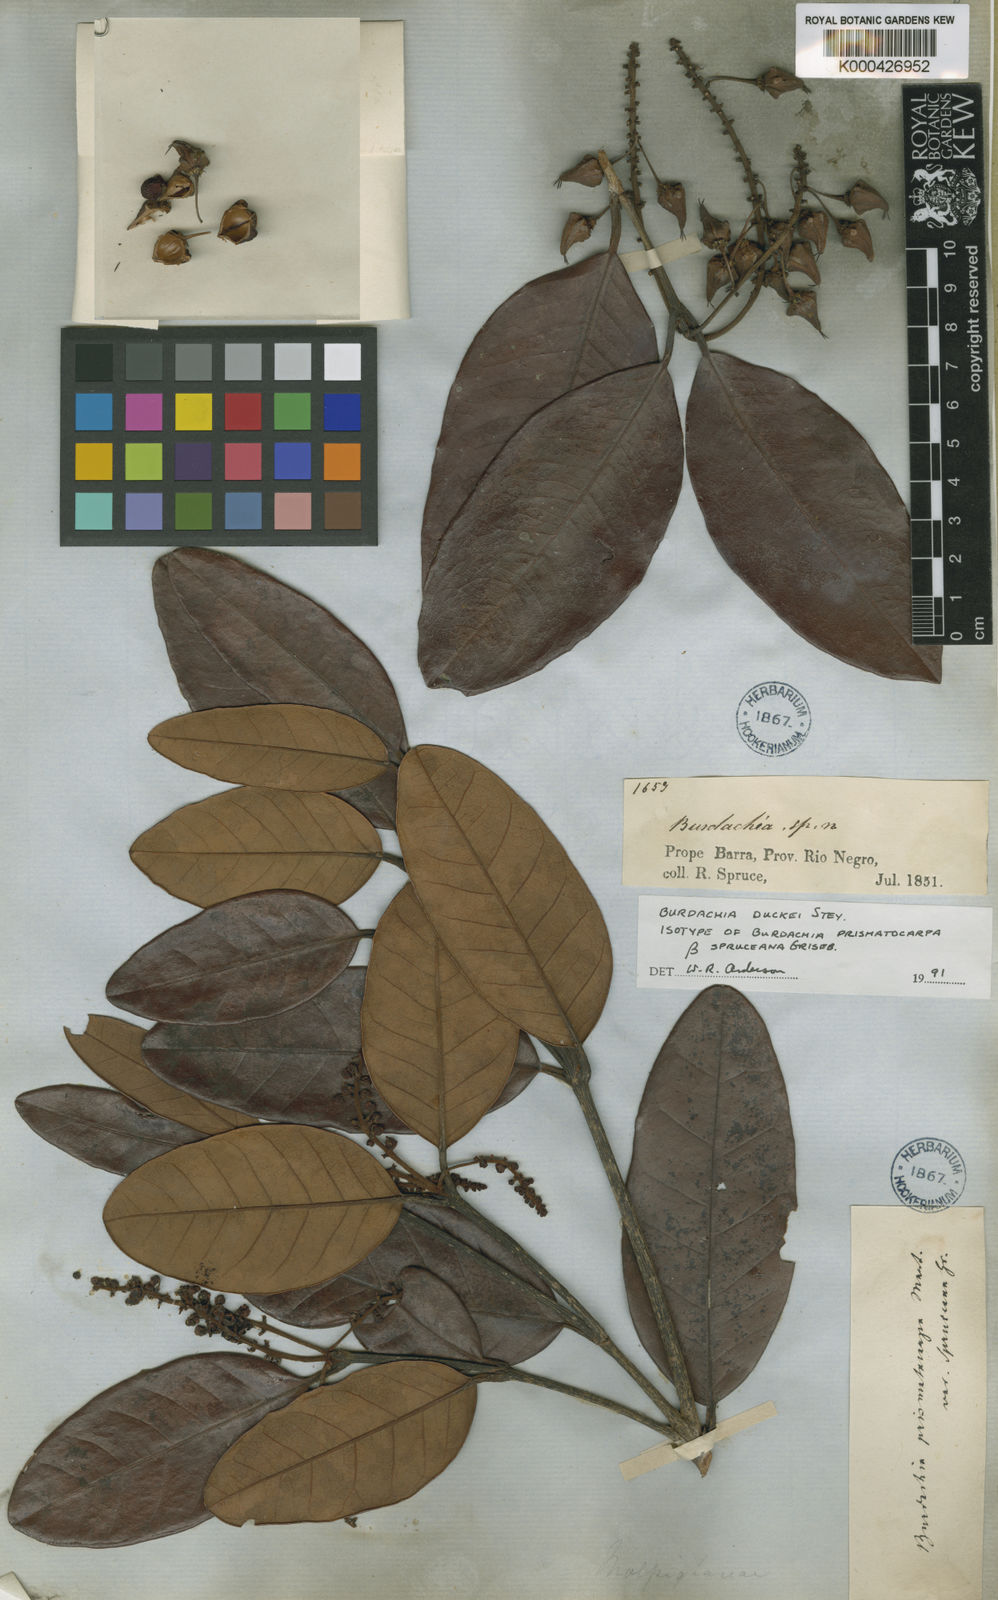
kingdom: Plantae
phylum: Tracheophyta
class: Magnoliopsida
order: Malpighiales
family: Malpighiaceae
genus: Burdachia
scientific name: Burdachia duckei
